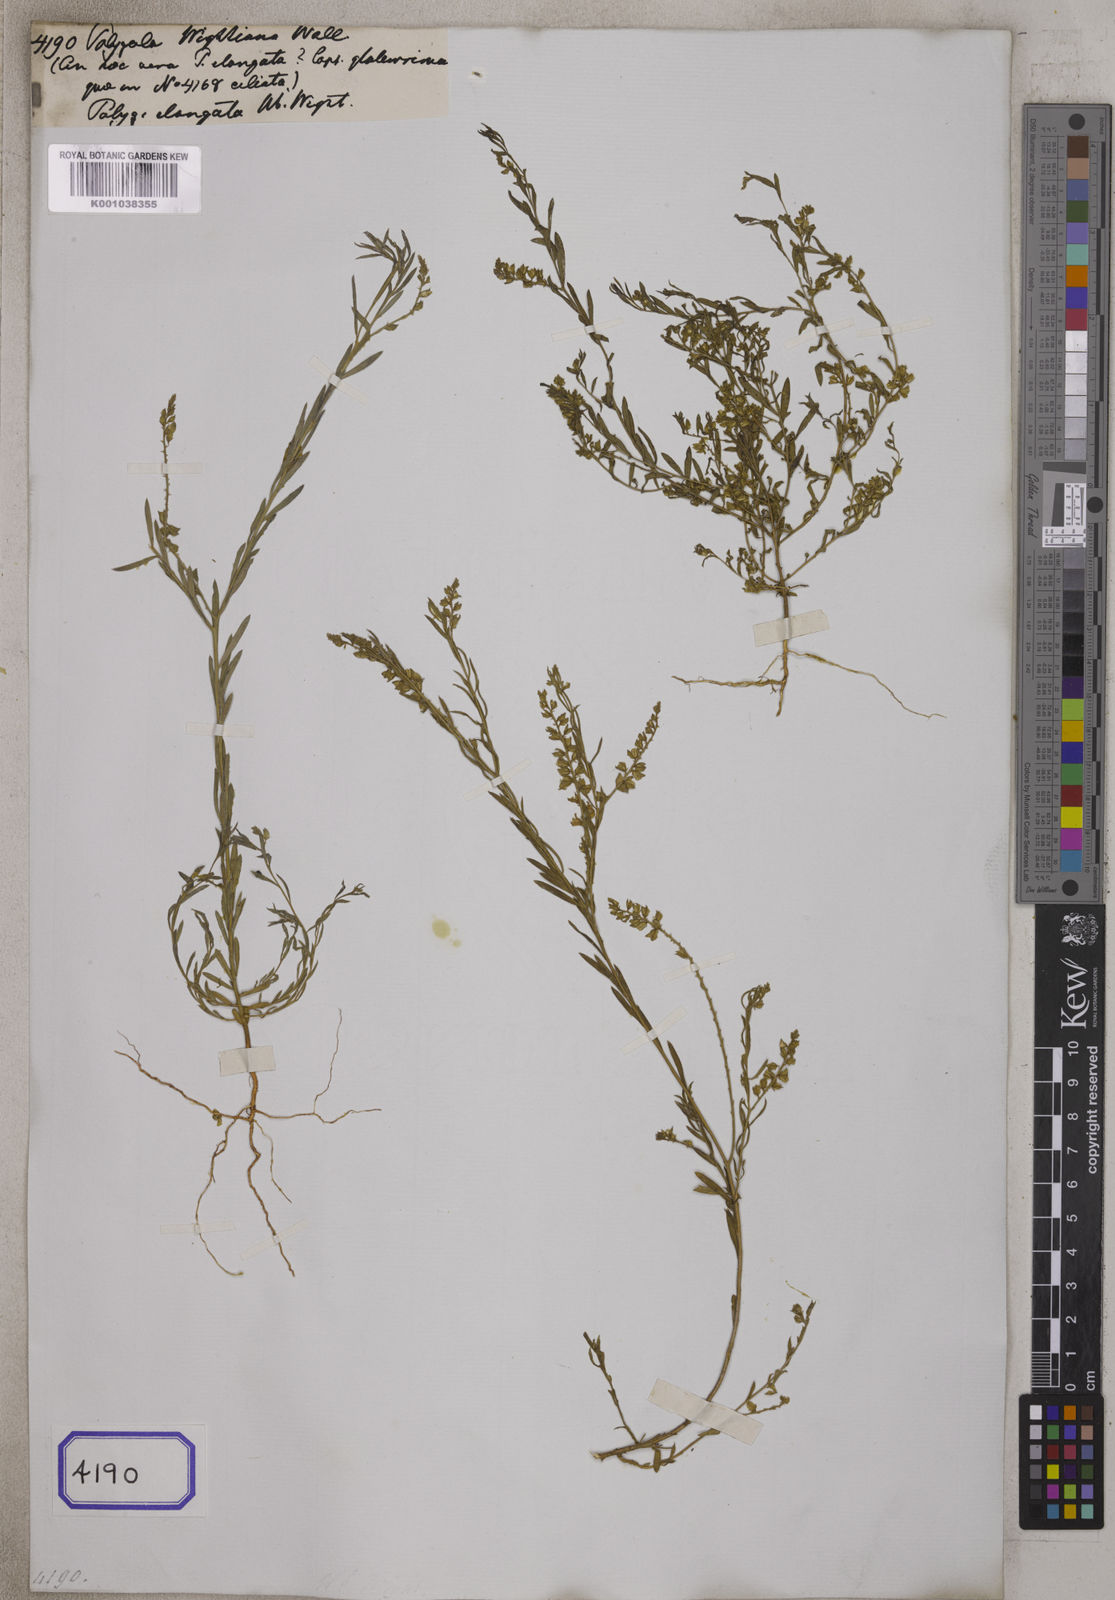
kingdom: Plantae
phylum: Tracheophyta
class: Magnoliopsida
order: Fabales
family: Polygalaceae
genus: Polygala
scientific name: Polygala
